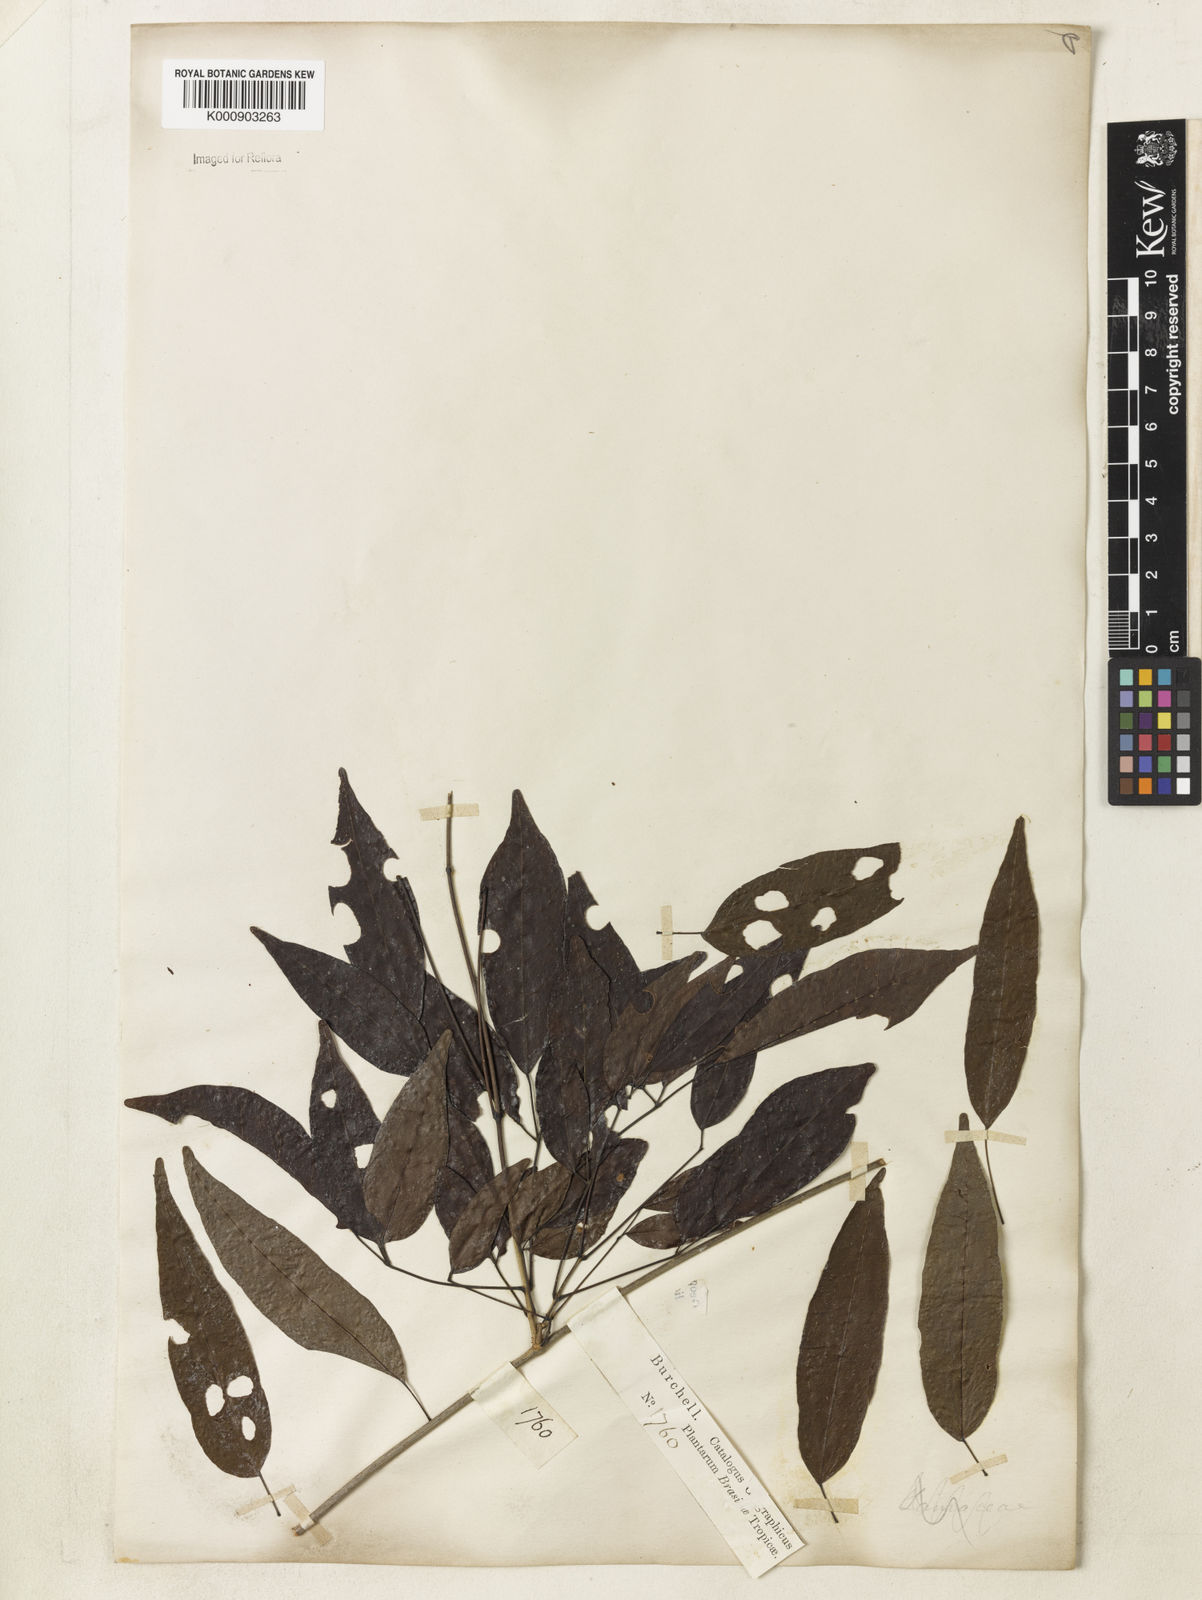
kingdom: Plantae
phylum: Tracheophyta
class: Magnoliopsida
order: Lamiales
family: Bignoniaceae
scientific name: Bignoniaceae
